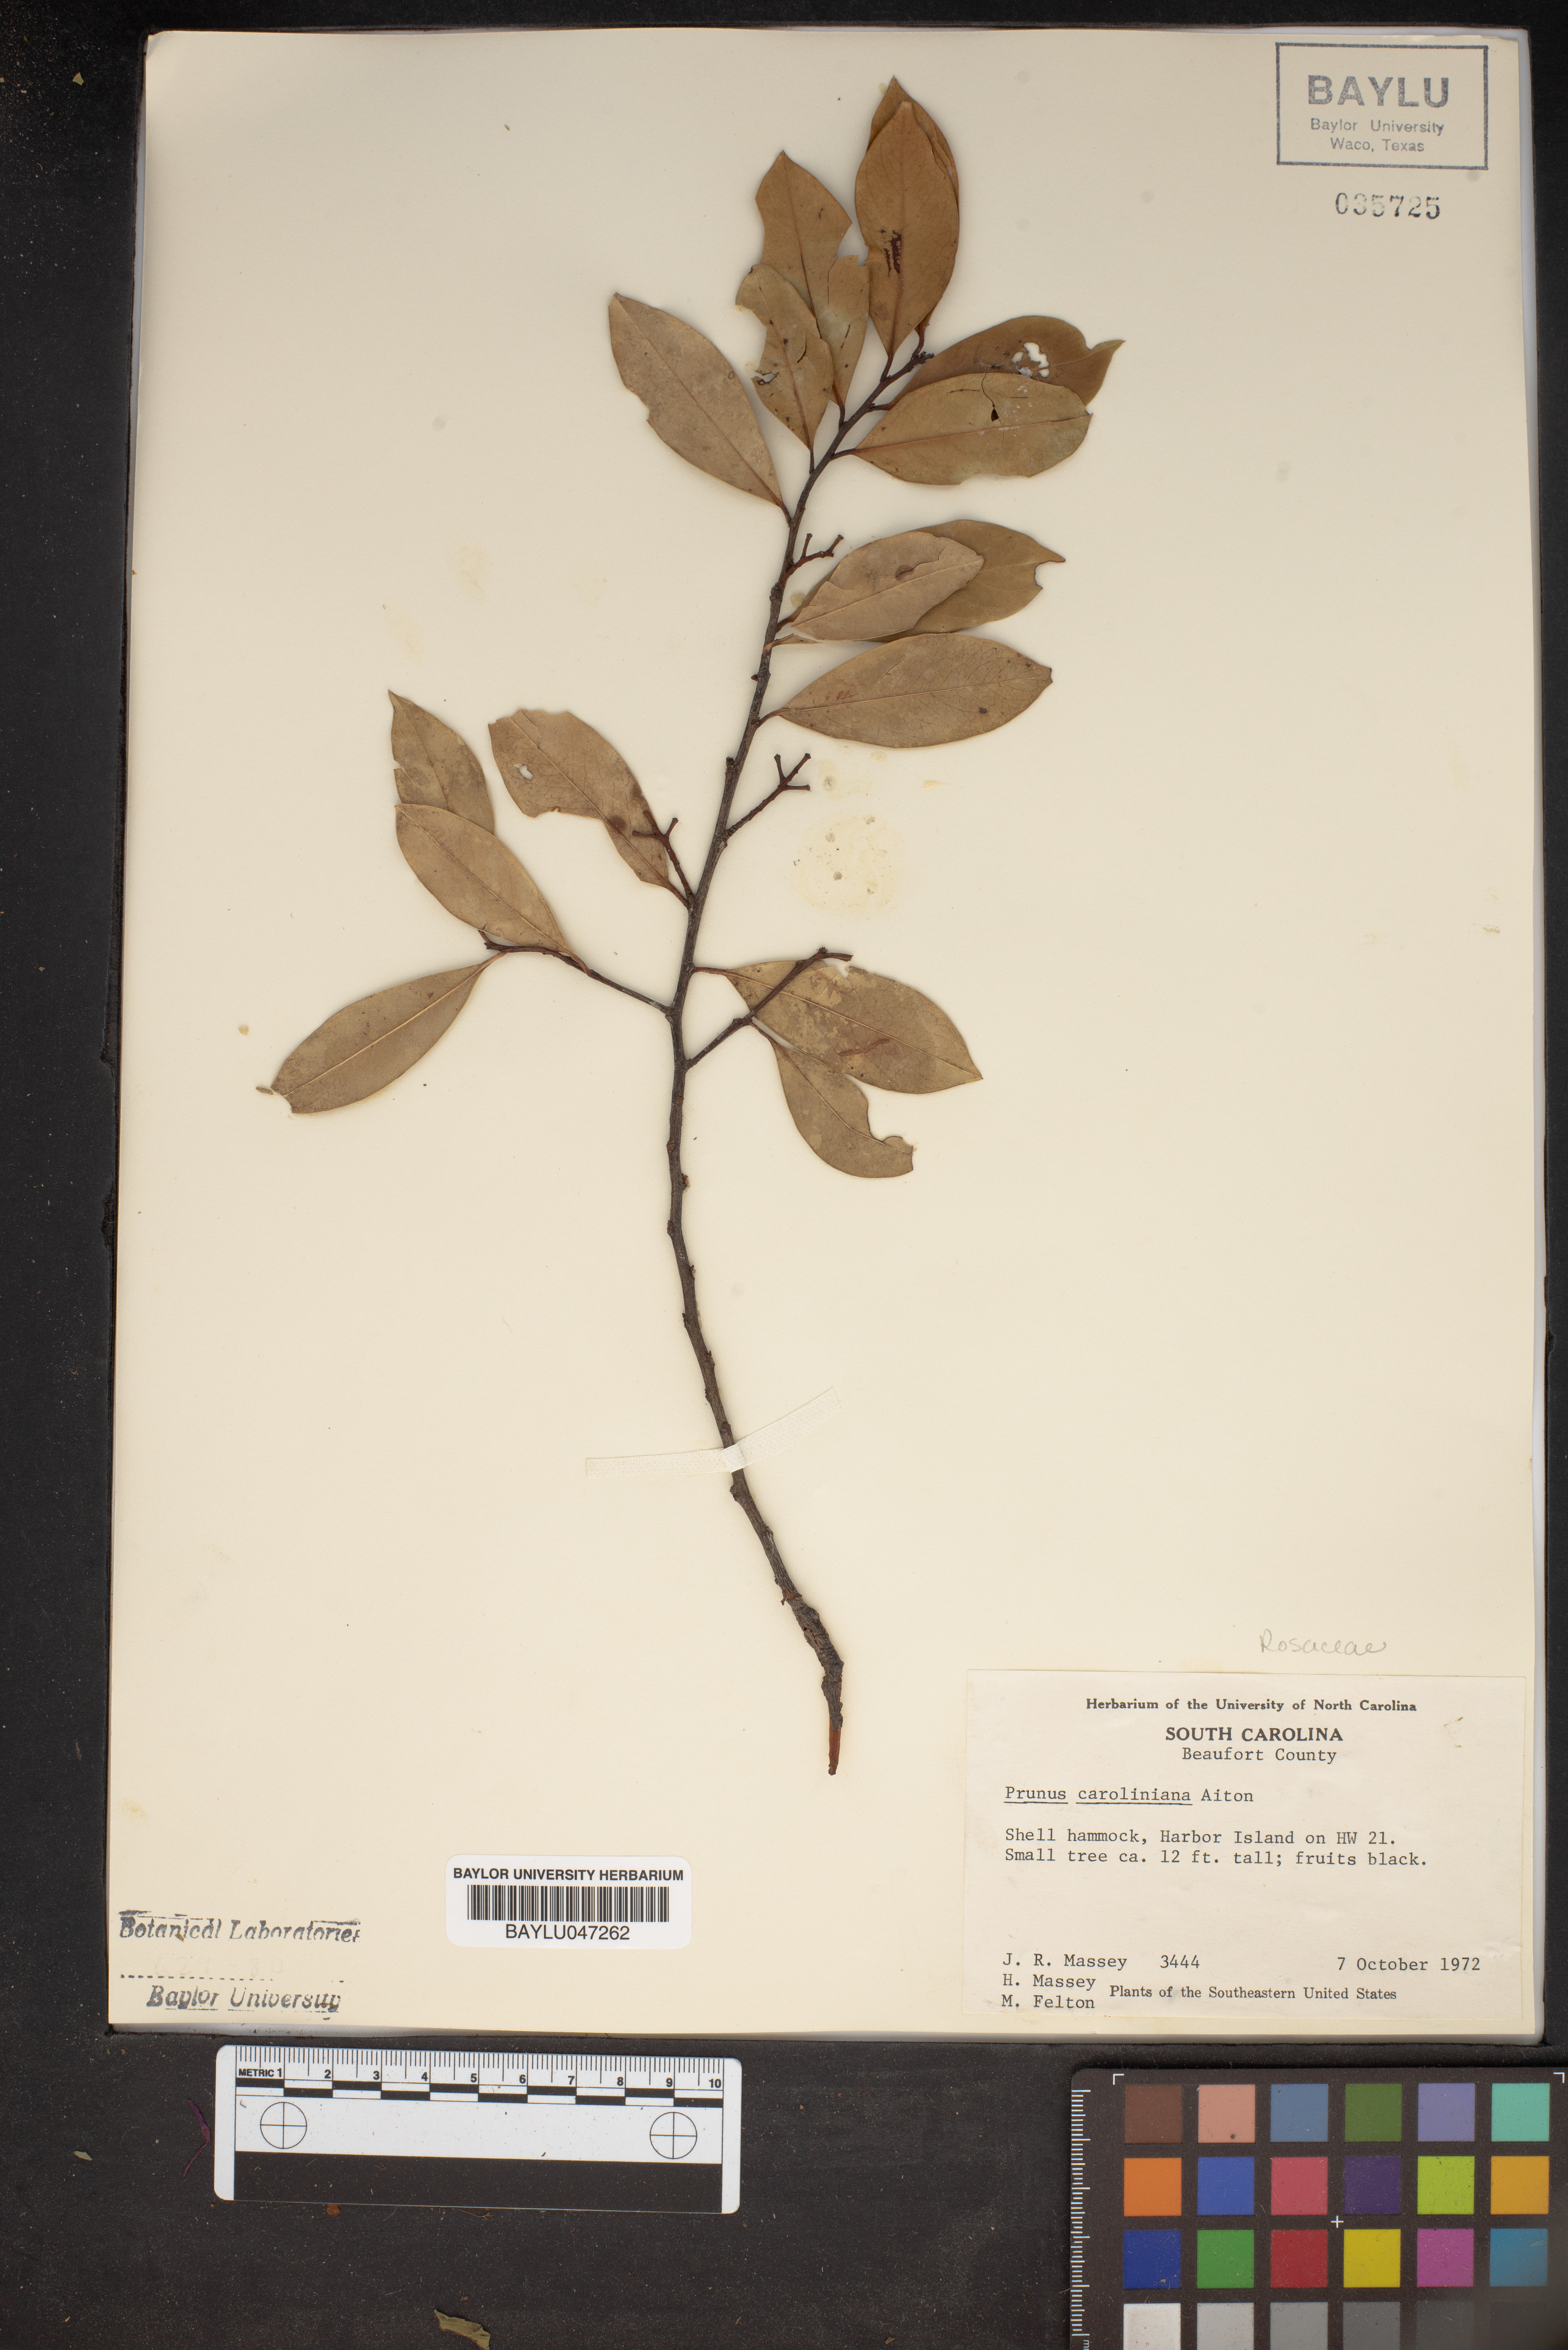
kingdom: Plantae
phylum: Tracheophyta
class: Magnoliopsida
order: Rosales
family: Rosaceae
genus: Prunus
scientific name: Prunus caroliniana
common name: Carolina laurel cherry
